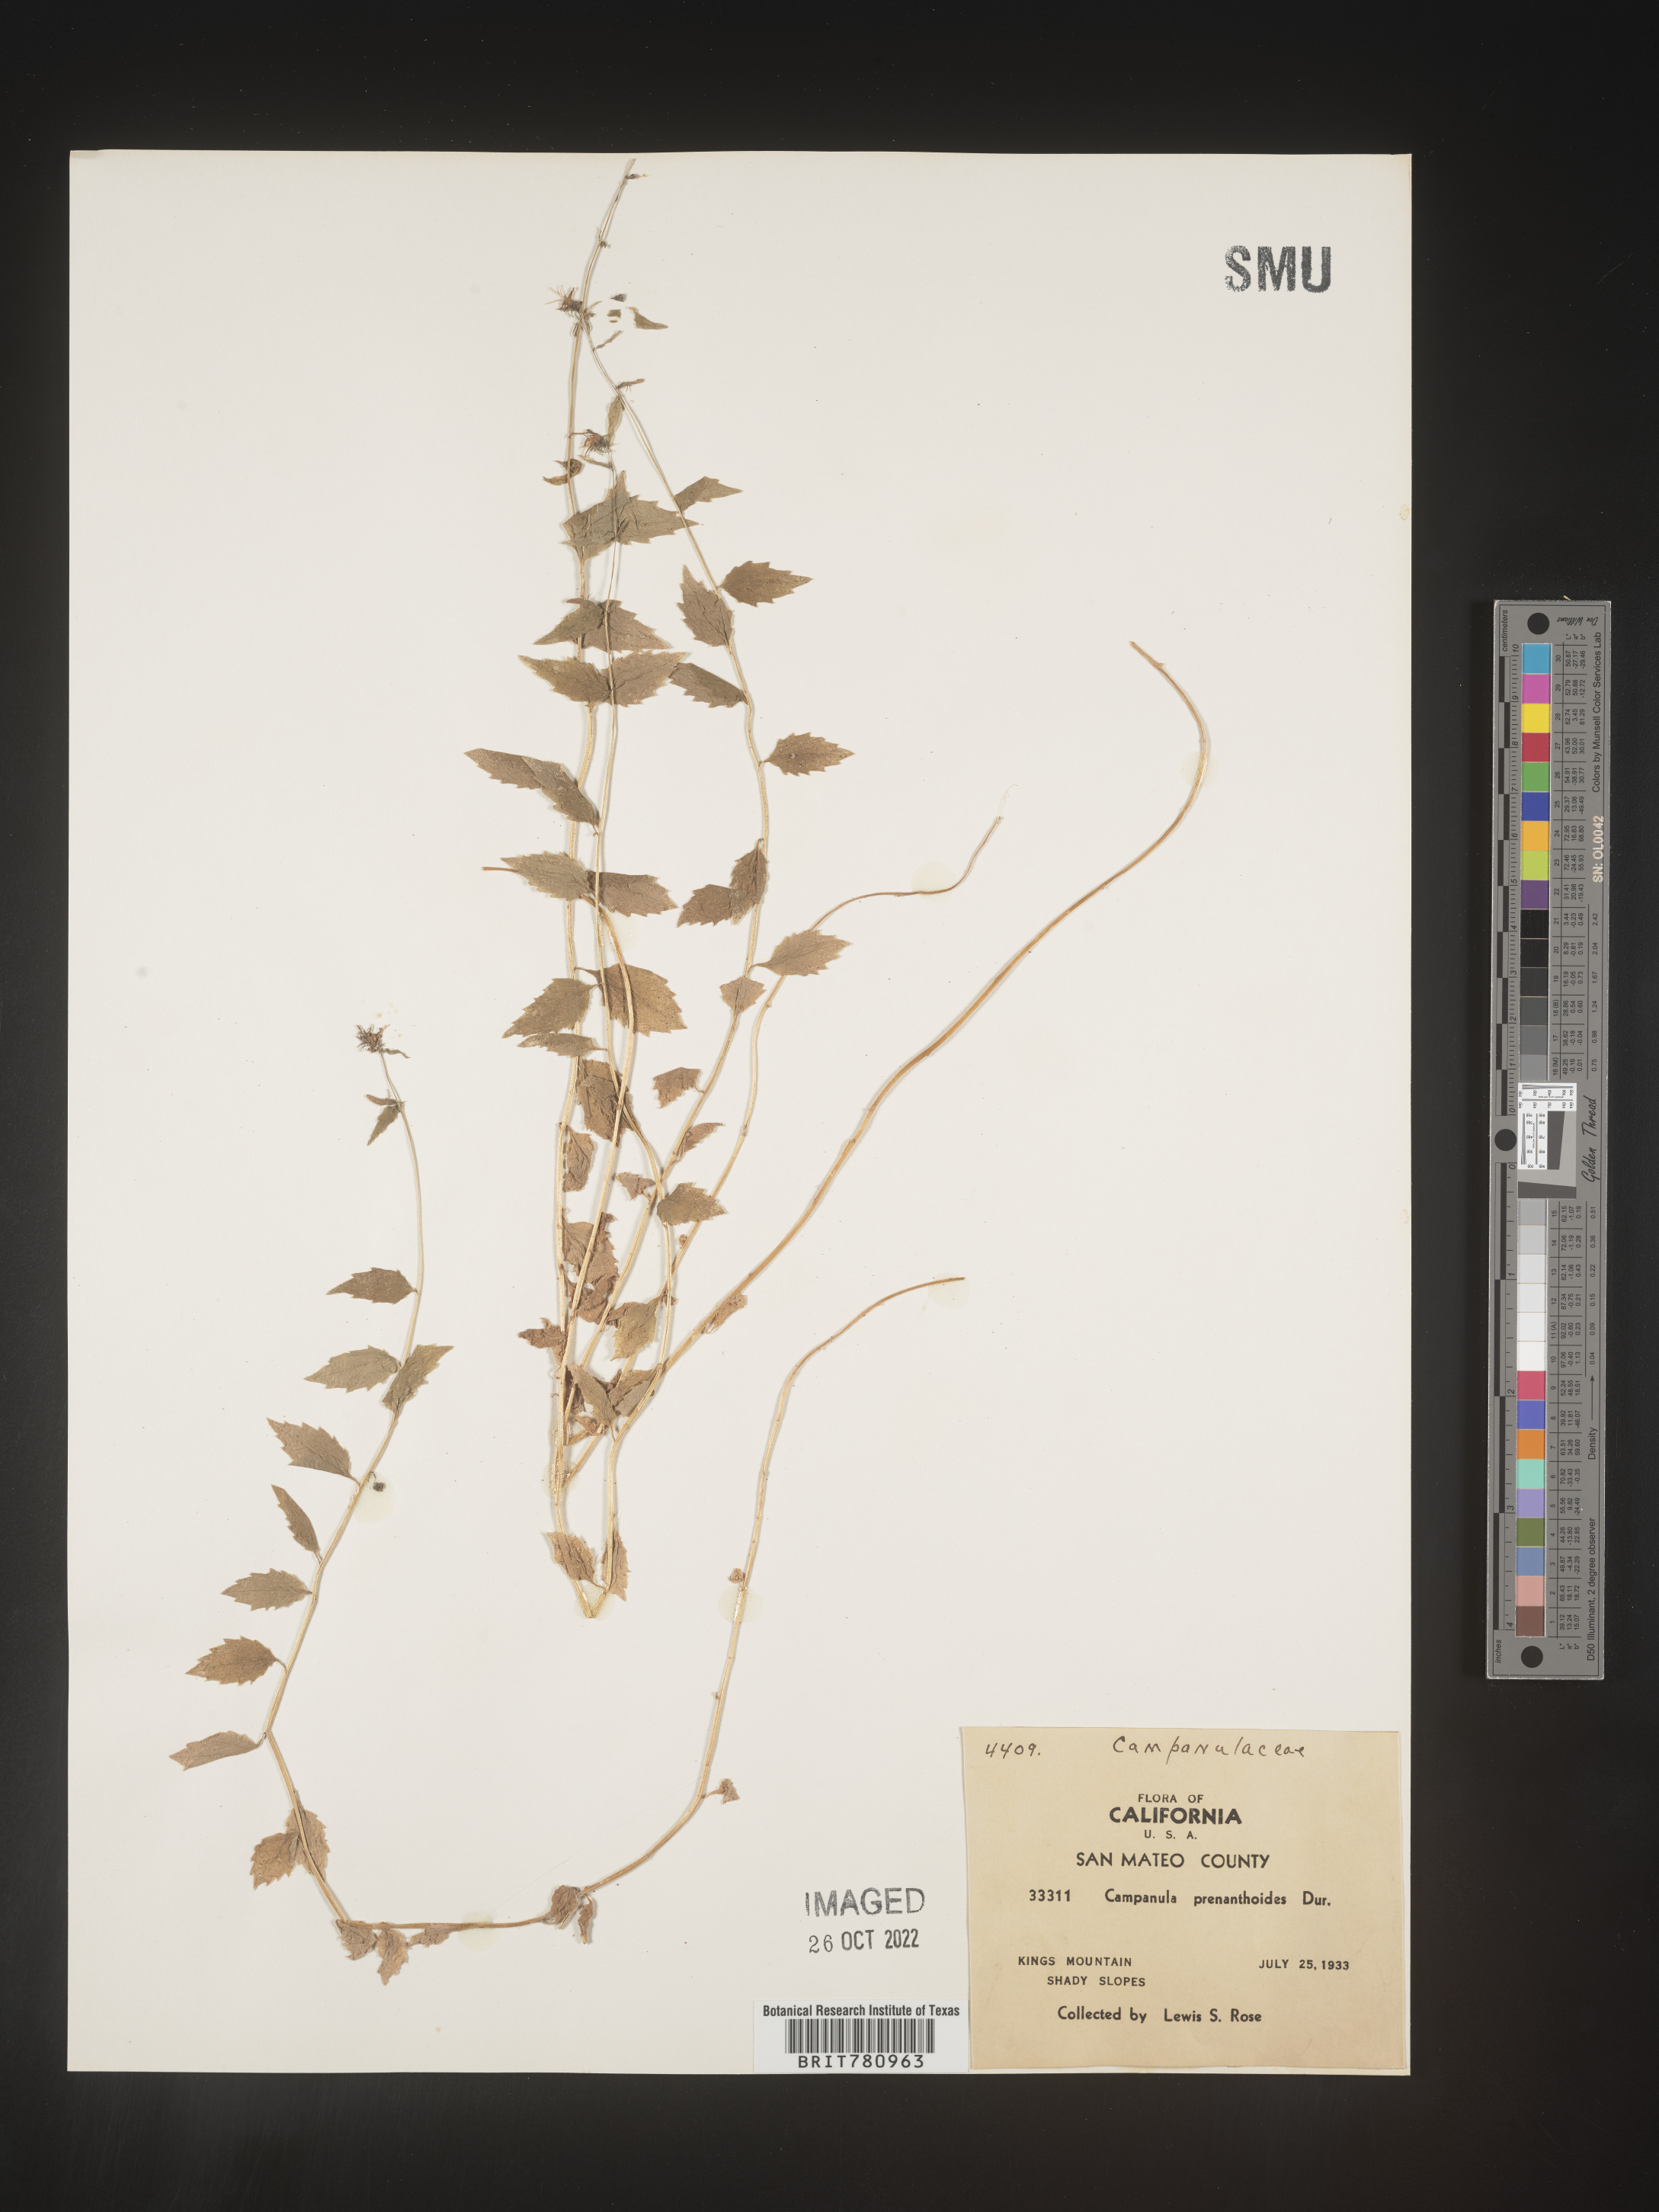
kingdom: Plantae
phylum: Tracheophyta
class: Magnoliopsida
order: Asterales
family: Campanulaceae
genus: Smithiastrum
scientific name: Smithiastrum prenanthoides
